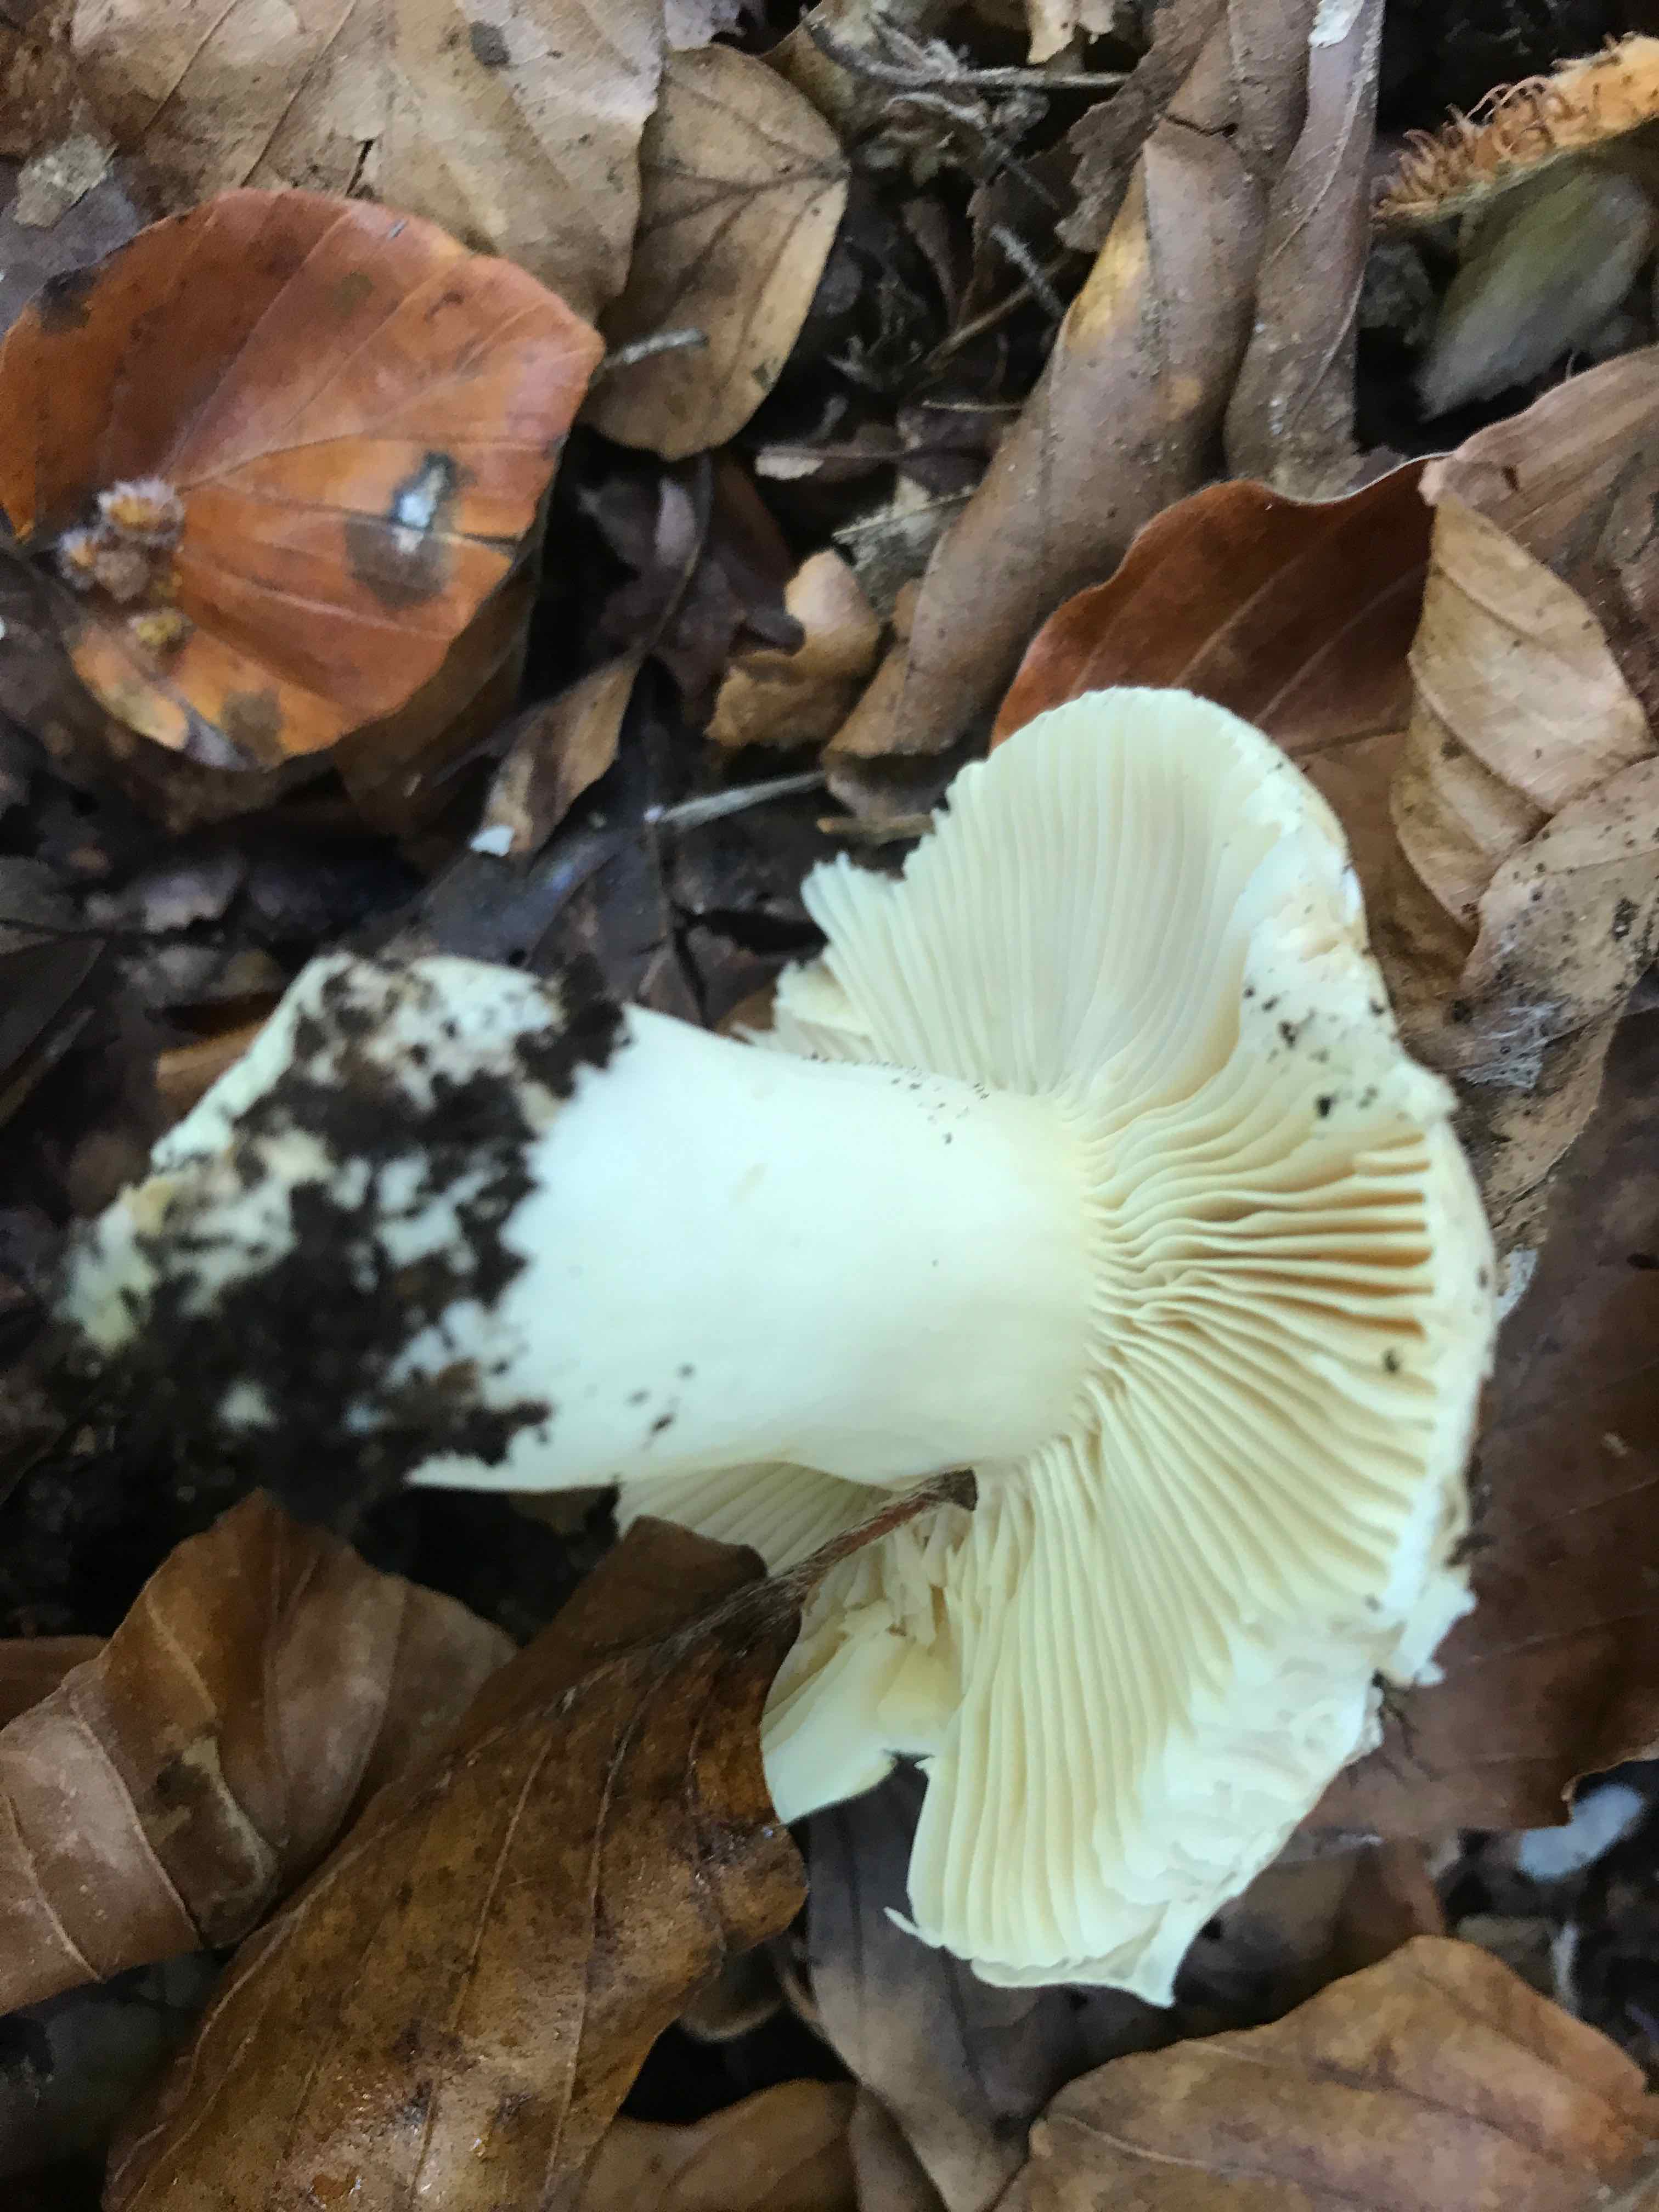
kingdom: Fungi
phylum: Basidiomycota
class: Agaricomycetes
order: Russulales
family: Russulaceae
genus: Russula
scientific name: Russula fellea
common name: galde-skørhat
